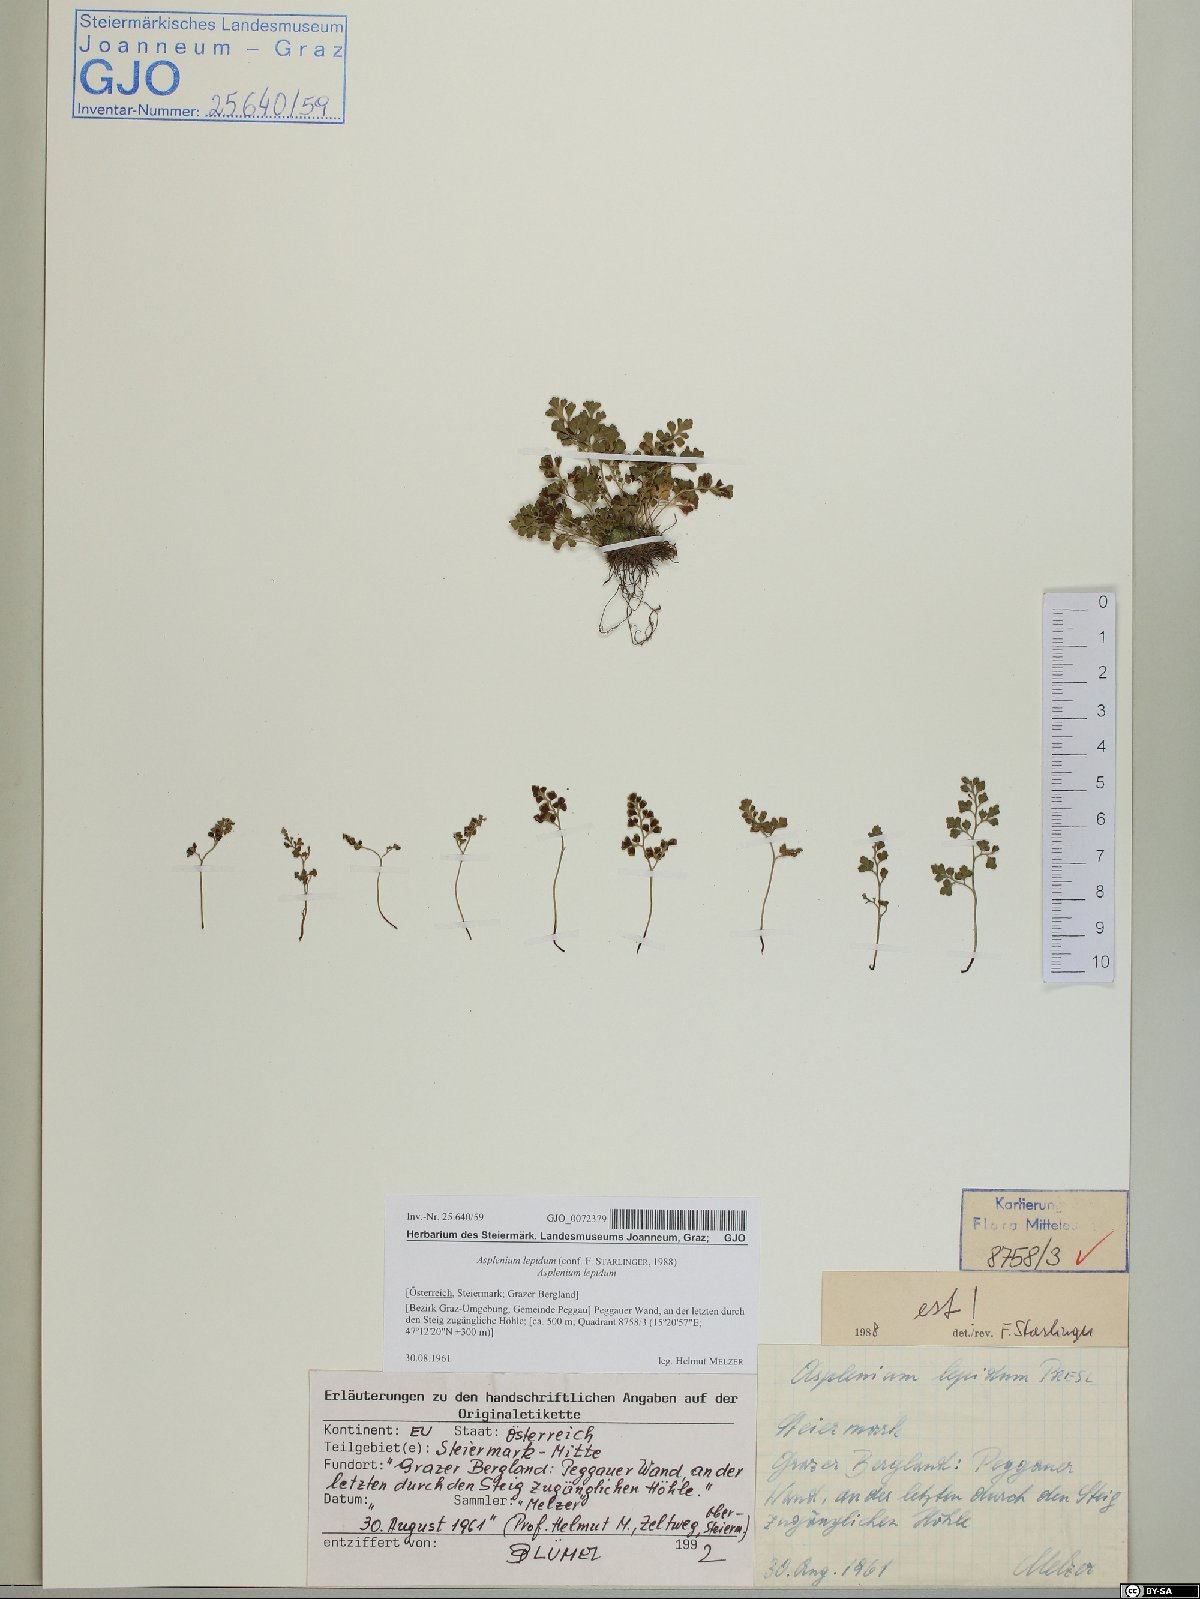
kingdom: Plantae
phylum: Tracheophyta
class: Polypodiopsida
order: Polypodiales
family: Aspleniaceae
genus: Asplenium
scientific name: Asplenium lepidum
